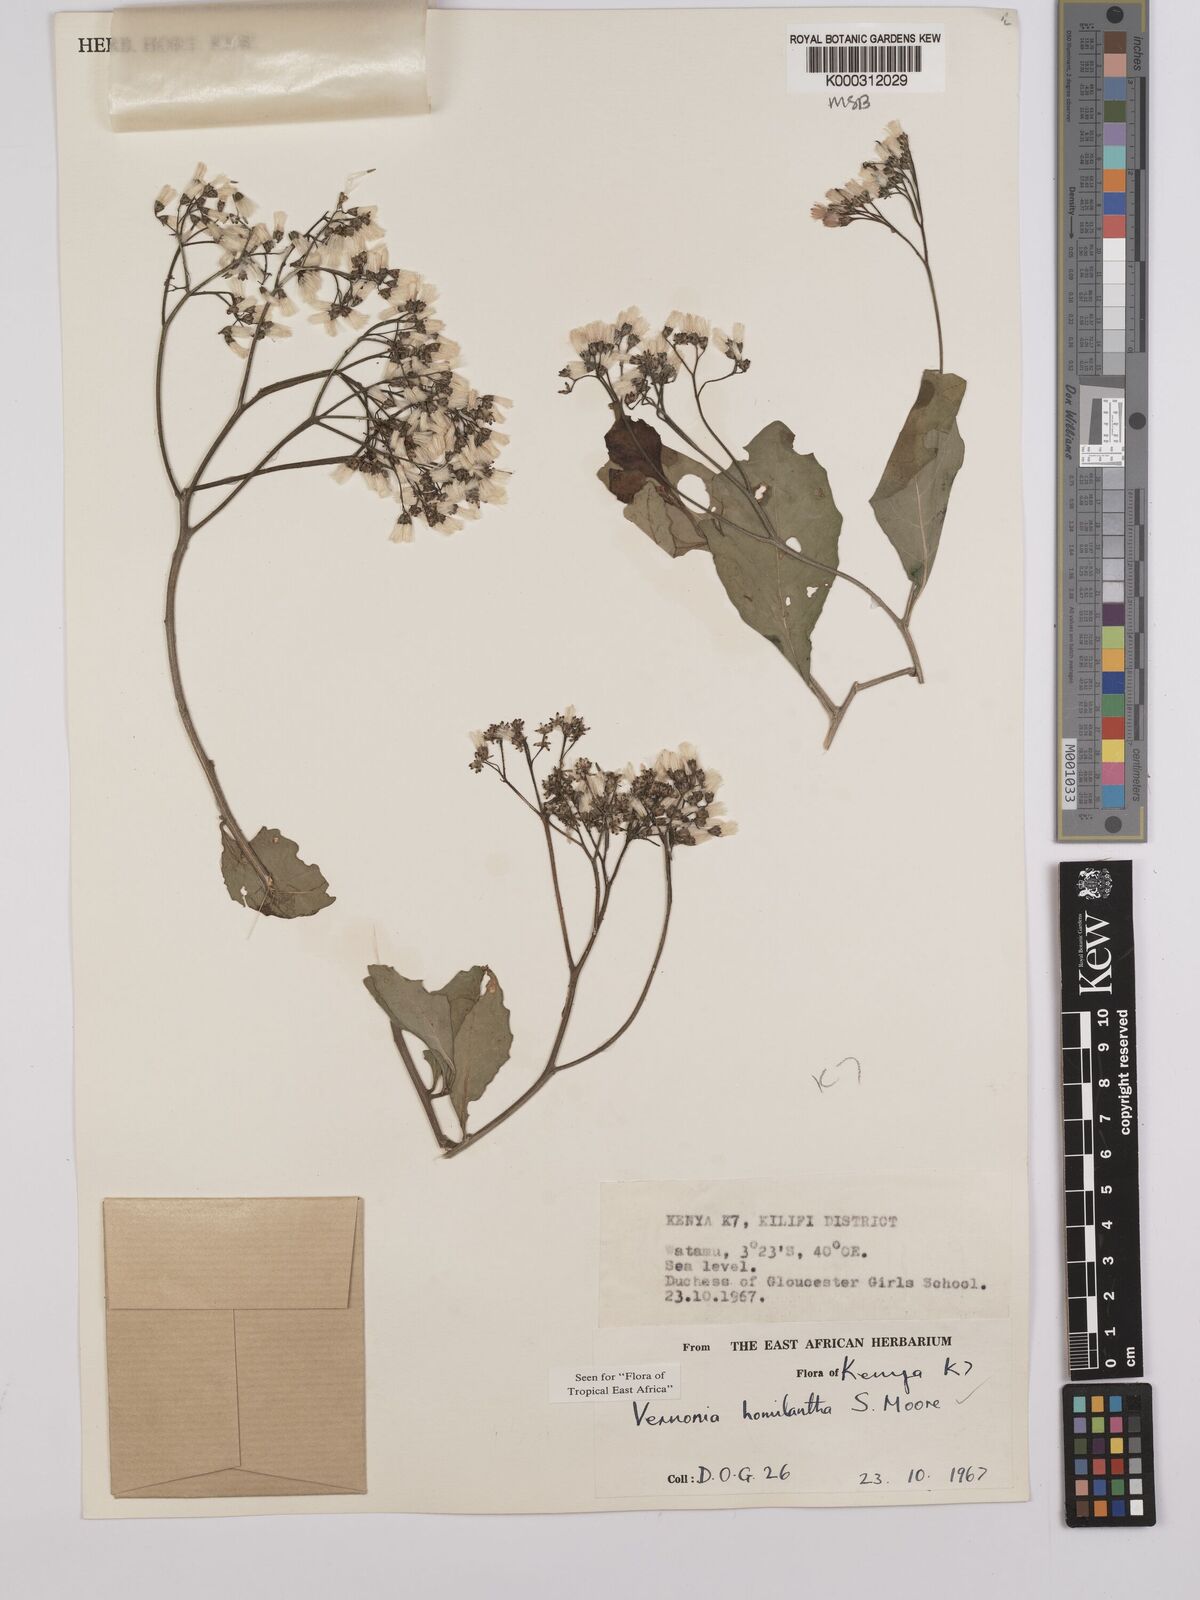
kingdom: Plantae
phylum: Tracheophyta
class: Magnoliopsida
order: Asterales
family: Asteraceae
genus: Orbivestus
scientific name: Orbivestus homilanthus
